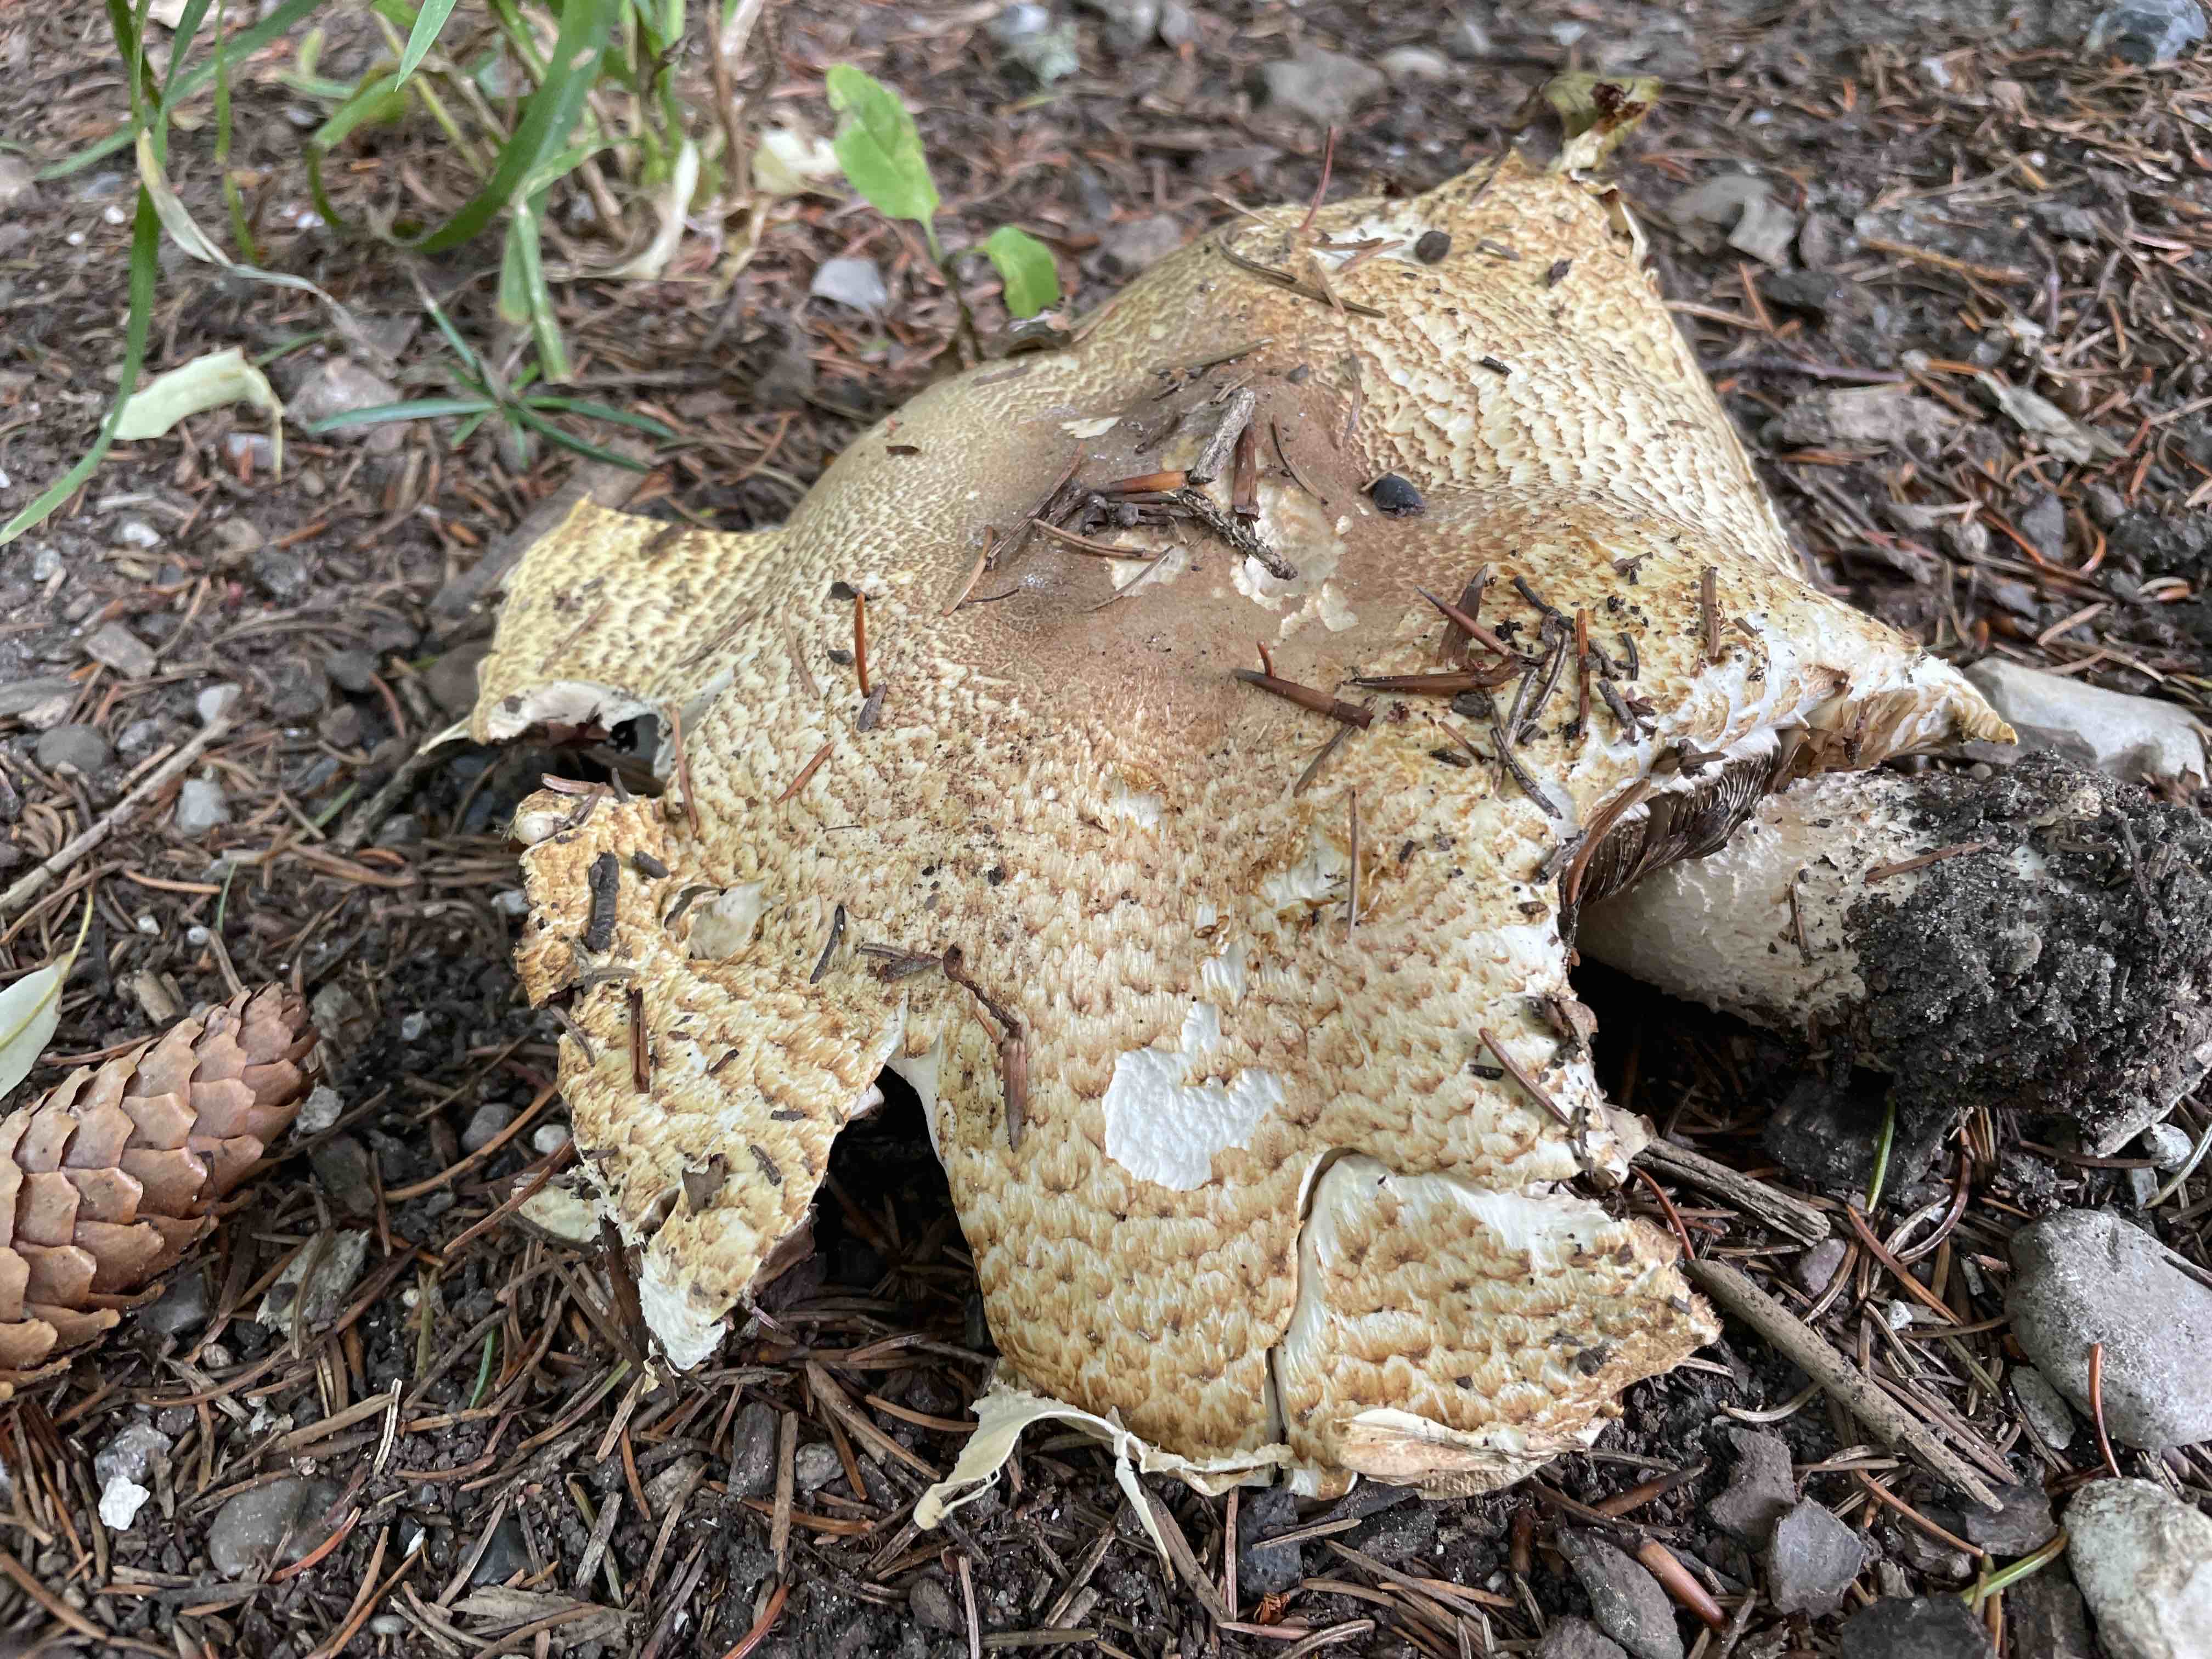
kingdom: Fungi
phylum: Basidiomycota
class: Agaricomycetes
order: Agaricales
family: Agaricaceae
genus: Agaricus
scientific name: Agaricus augustus
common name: prægtig champignon
